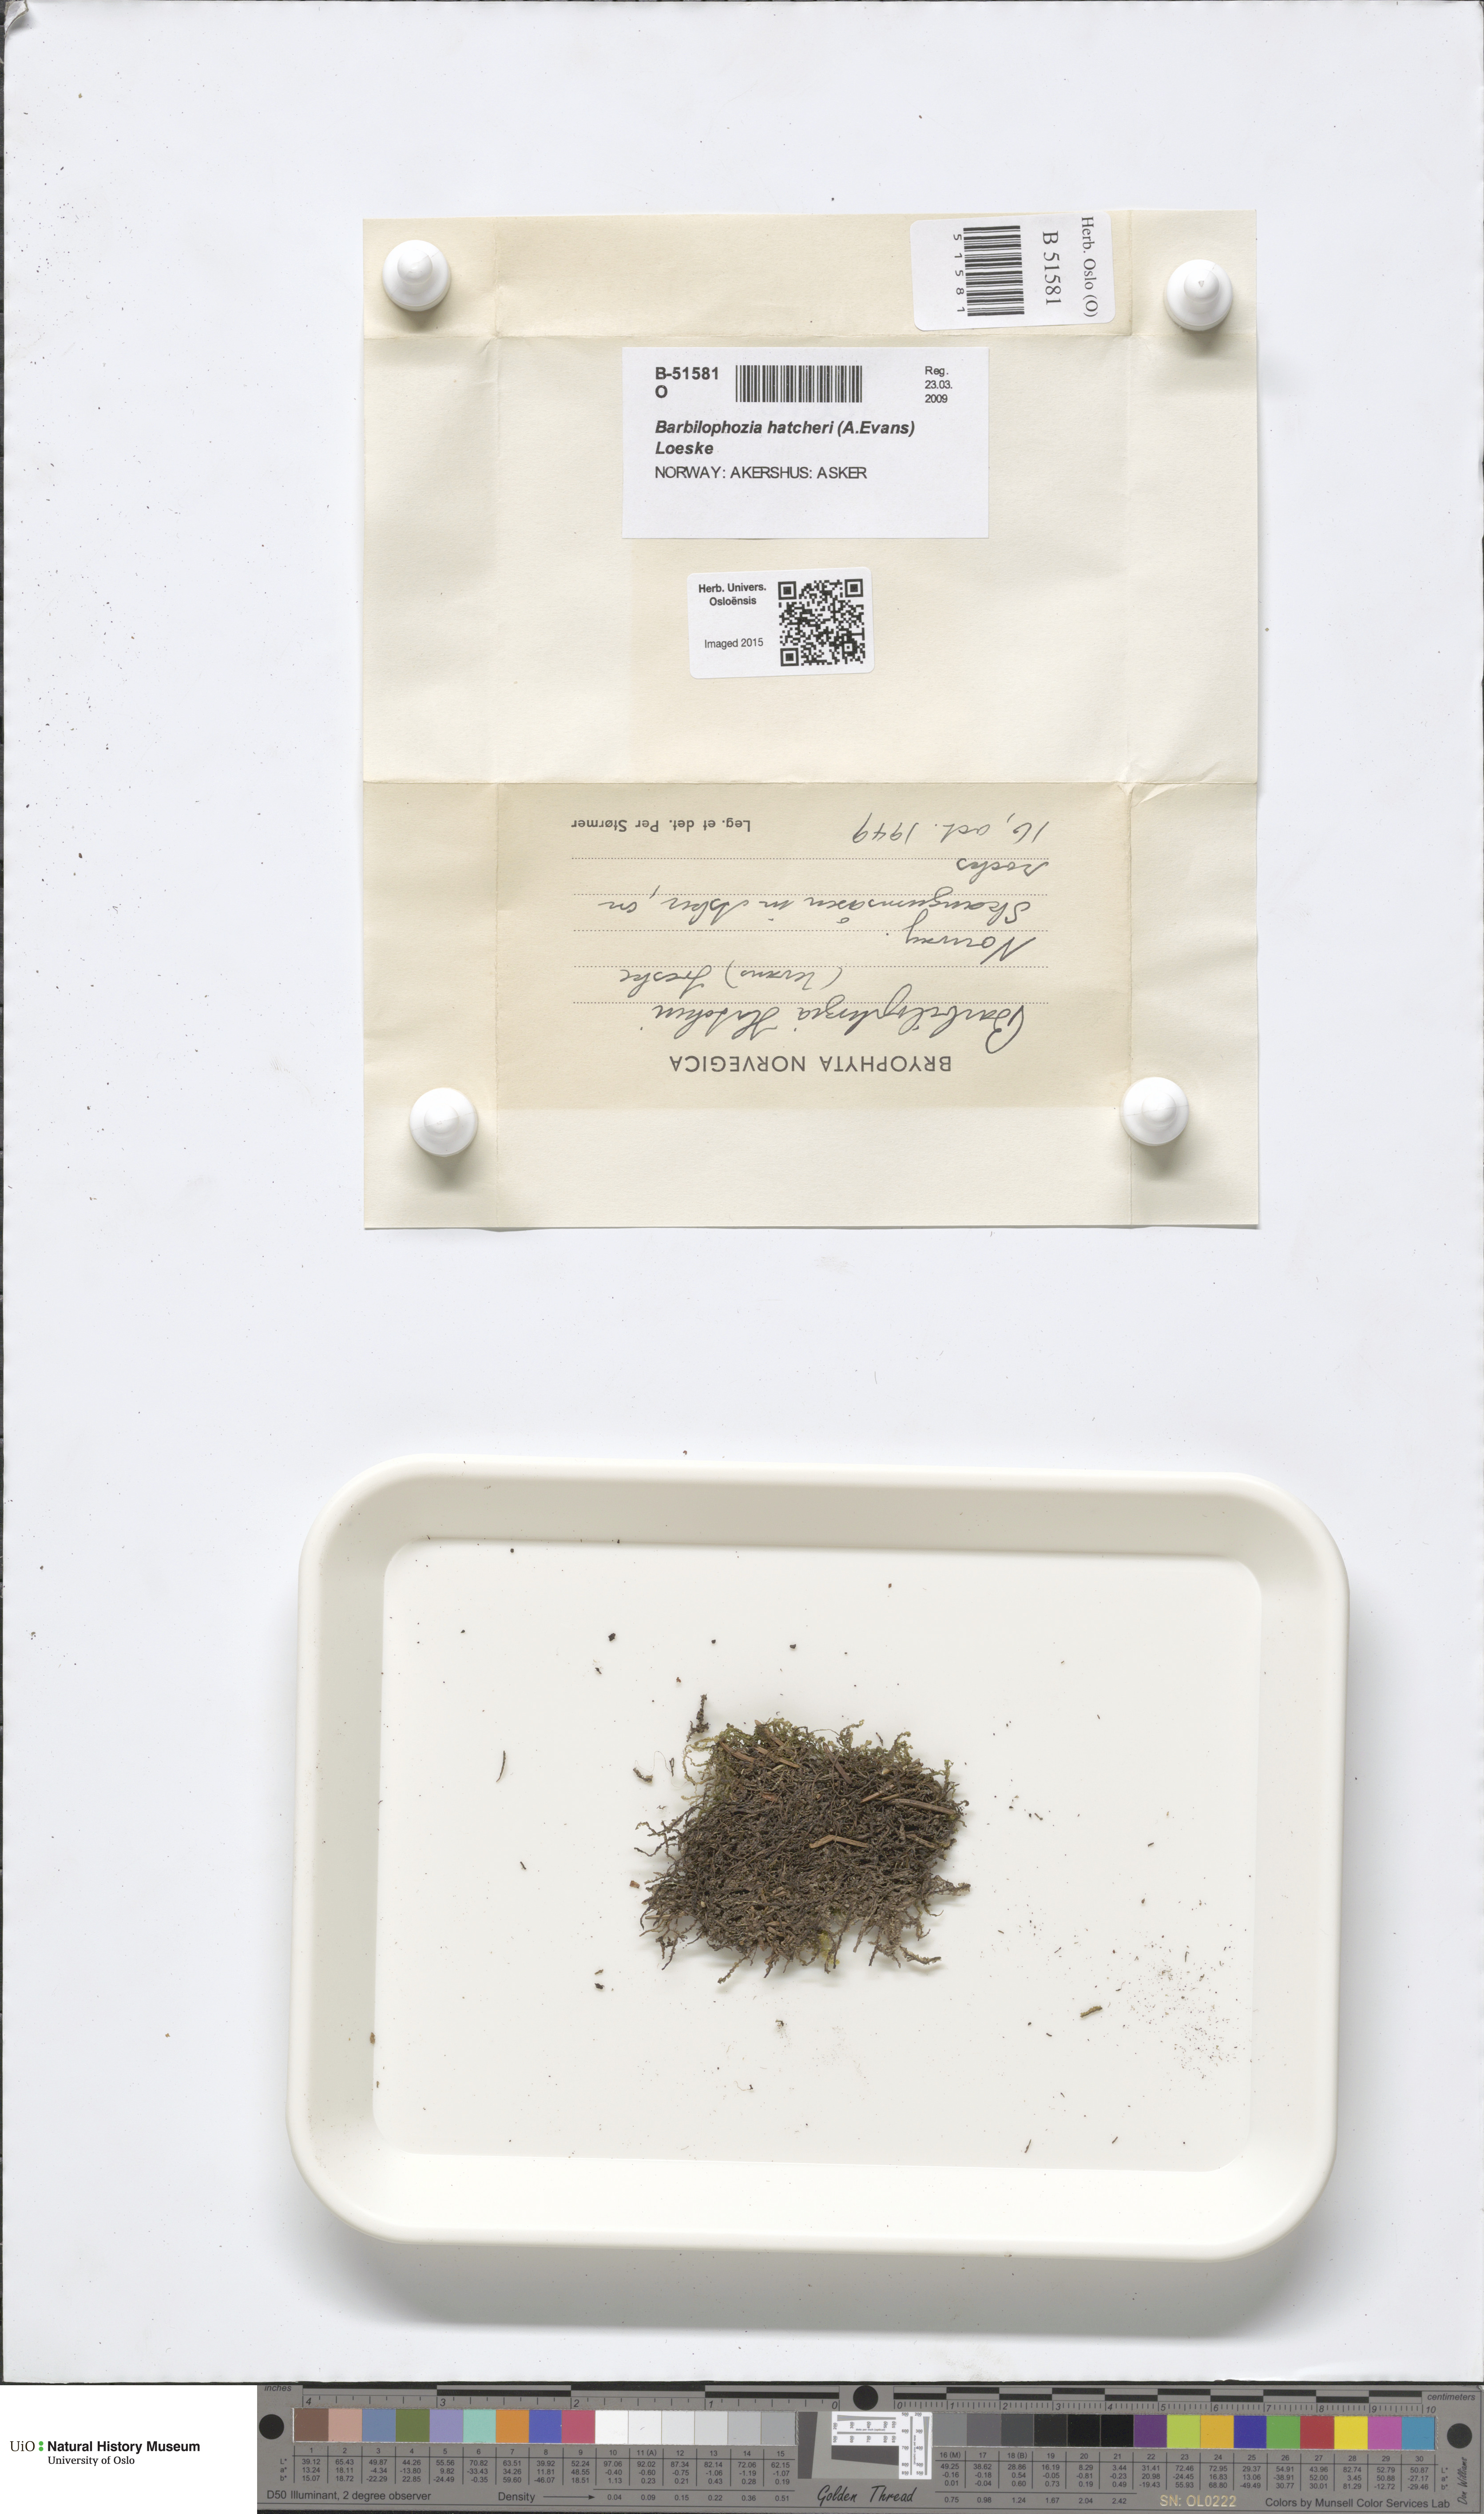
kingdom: Plantae
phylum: Marchantiophyta
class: Jungermanniopsida
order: Jungermanniales
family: Anastrophyllaceae
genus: Barbilophozia
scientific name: Barbilophozia hatcheri
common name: Hatcher s pawwort
